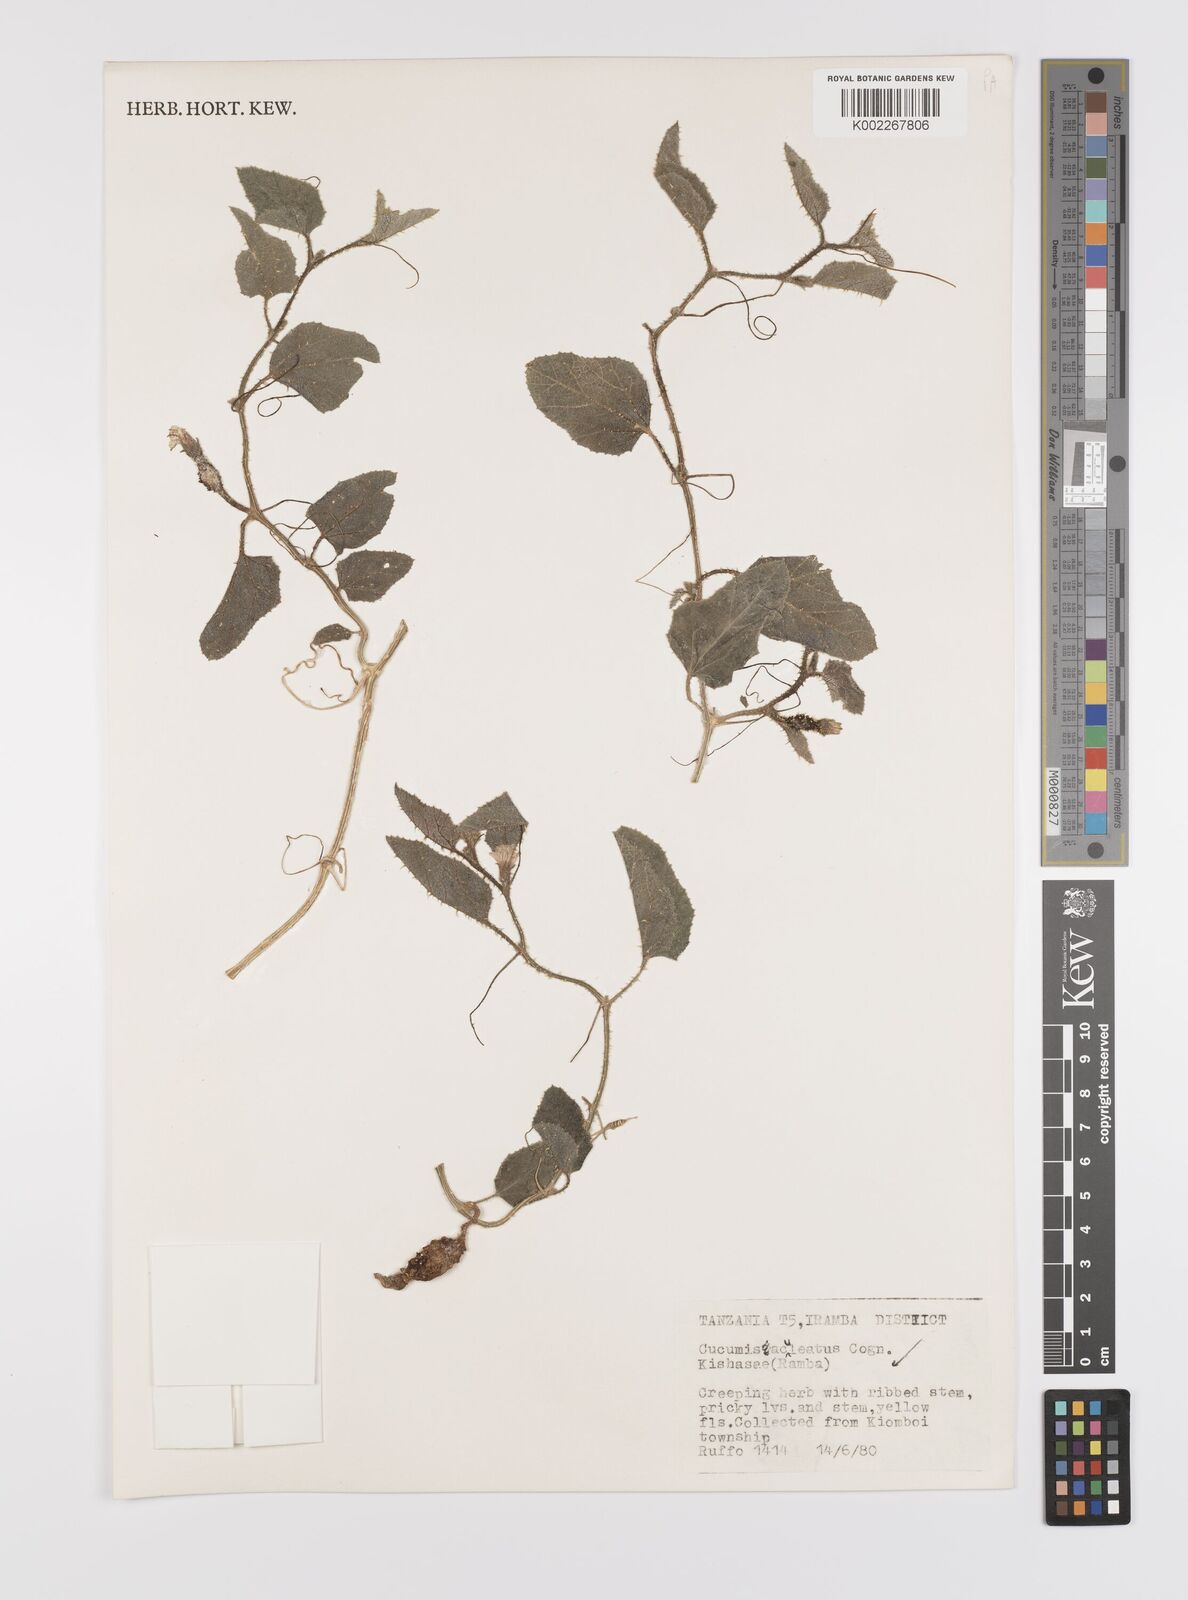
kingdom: Plantae
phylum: Tracheophyta
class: Magnoliopsida
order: Cucurbitales
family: Cucurbitaceae
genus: Cucumis
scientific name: Cucumis aculeatus
